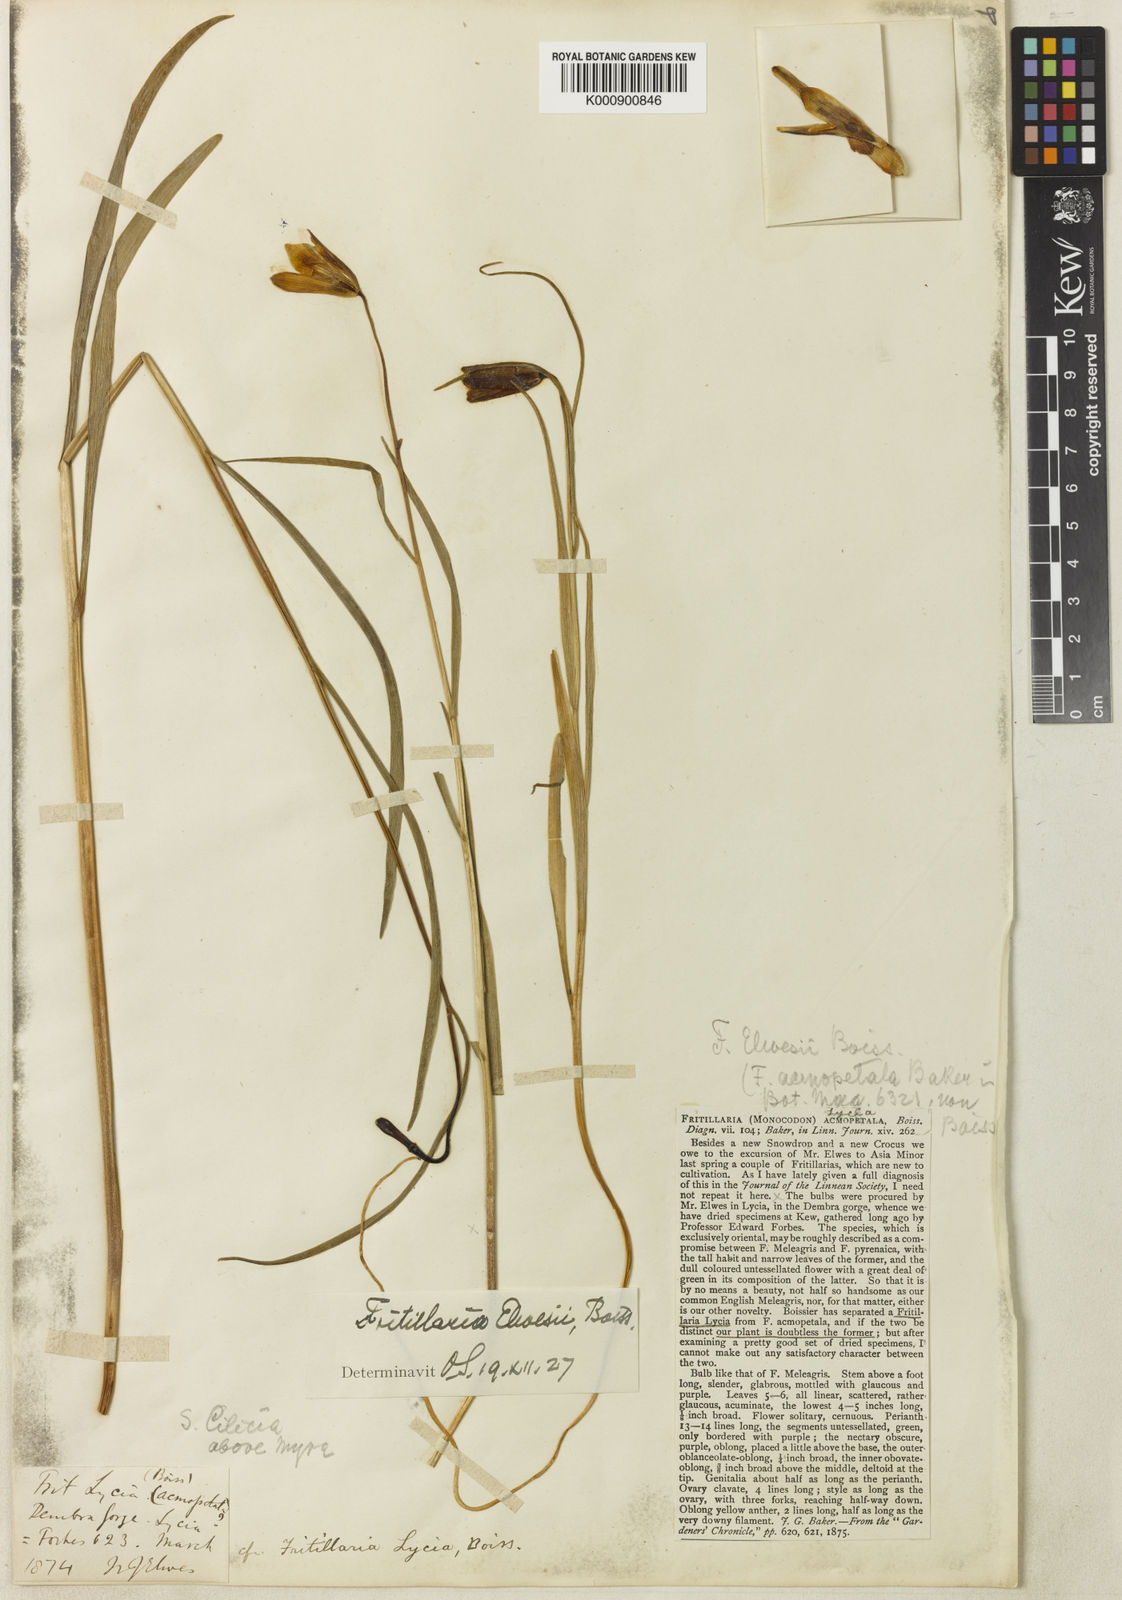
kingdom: Plantae
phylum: Tracheophyta
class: Liliopsida
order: Liliales
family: Liliaceae
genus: Fritillaria
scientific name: Fritillaria elwesii
